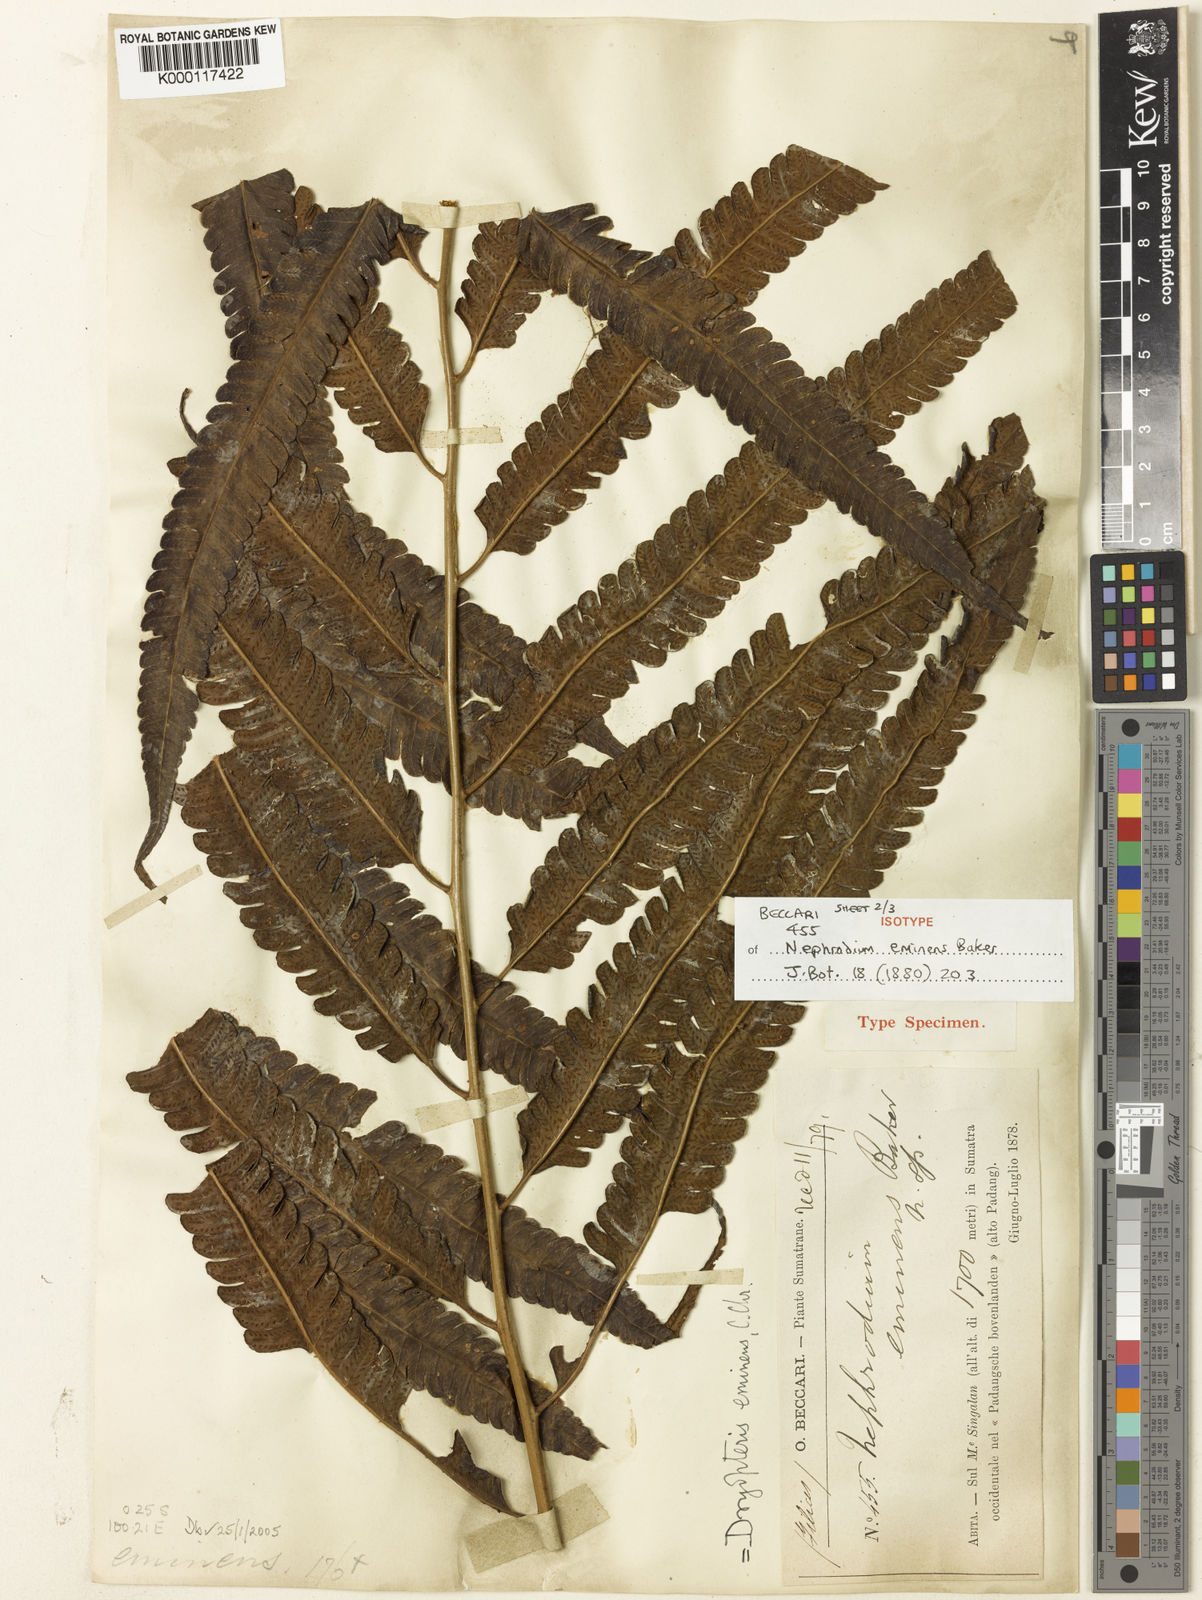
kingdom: Plantae
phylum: Tracheophyta
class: Polypodiopsida
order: Polypodiales
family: Thelypteridaceae
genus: Sphaerostephanos
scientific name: Sphaerostephanos eminens
